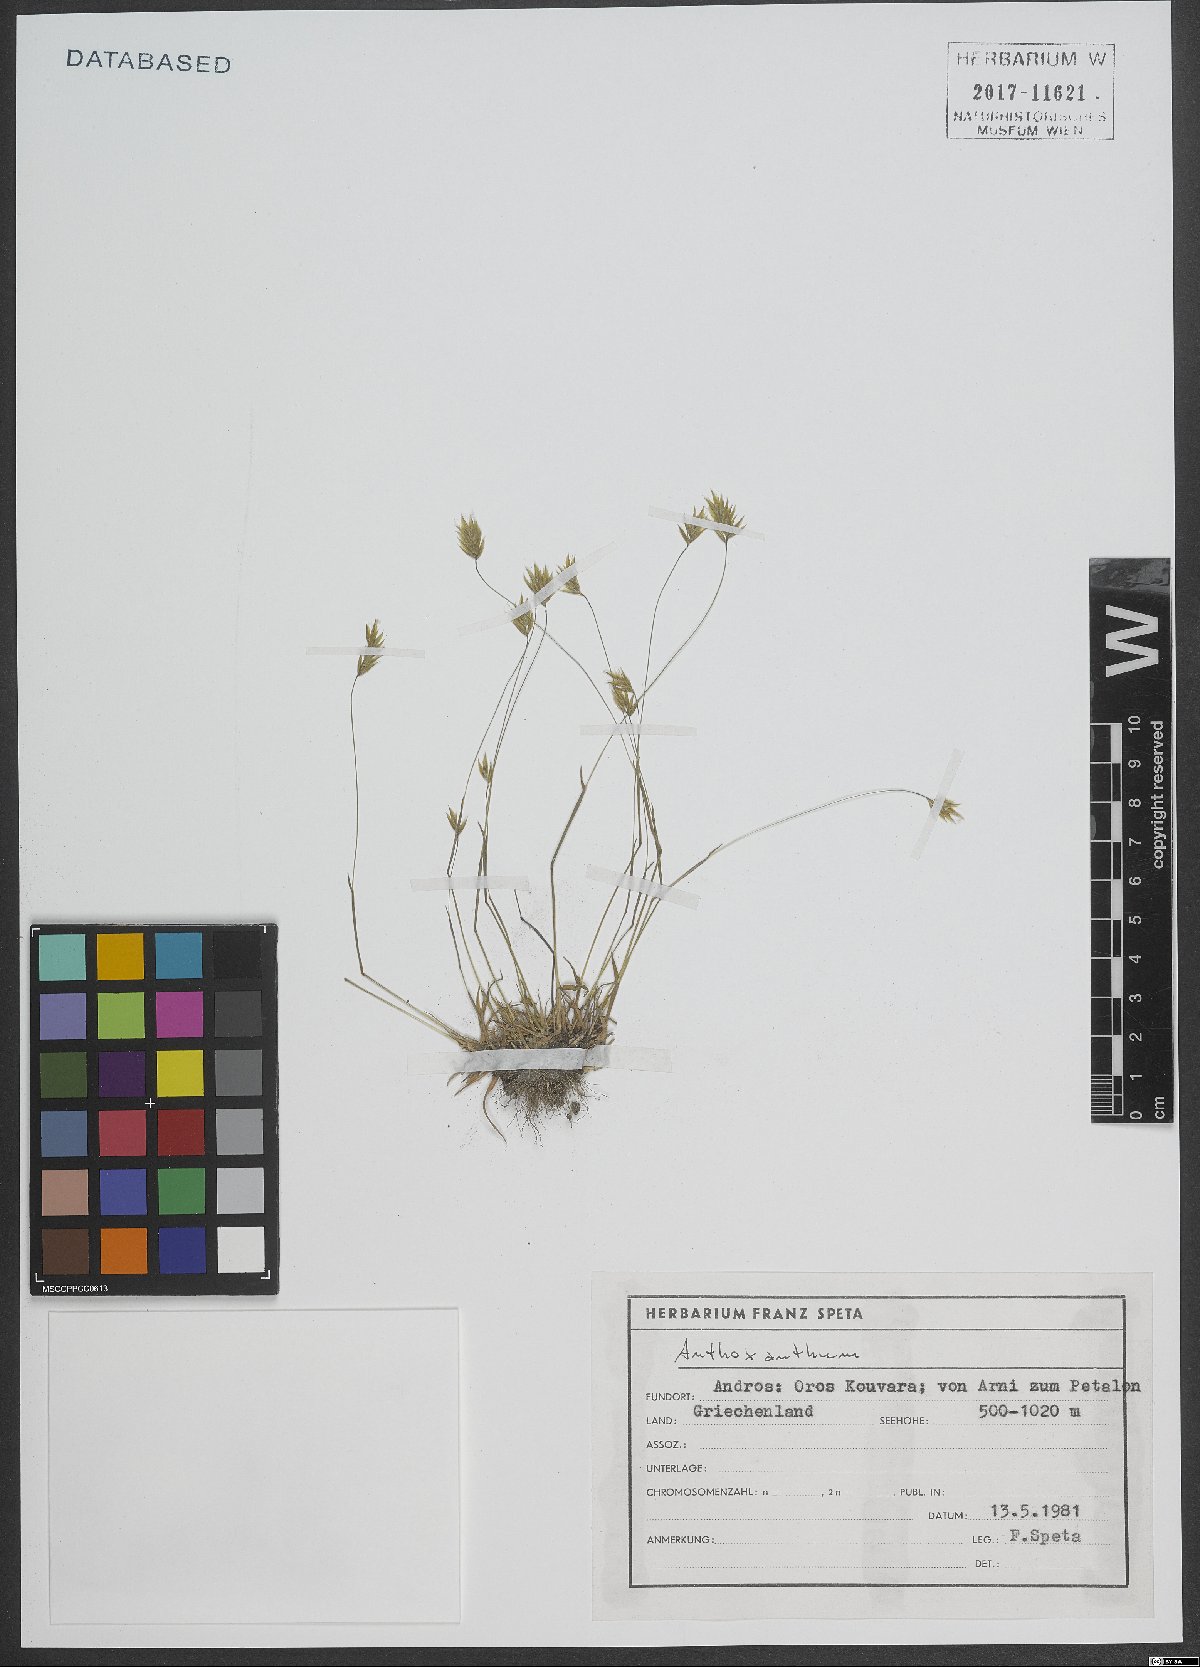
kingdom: Plantae
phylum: Tracheophyta
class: Liliopsida
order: Poales
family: Poaceae
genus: Anthoxanthum
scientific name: Anthoxanthum
